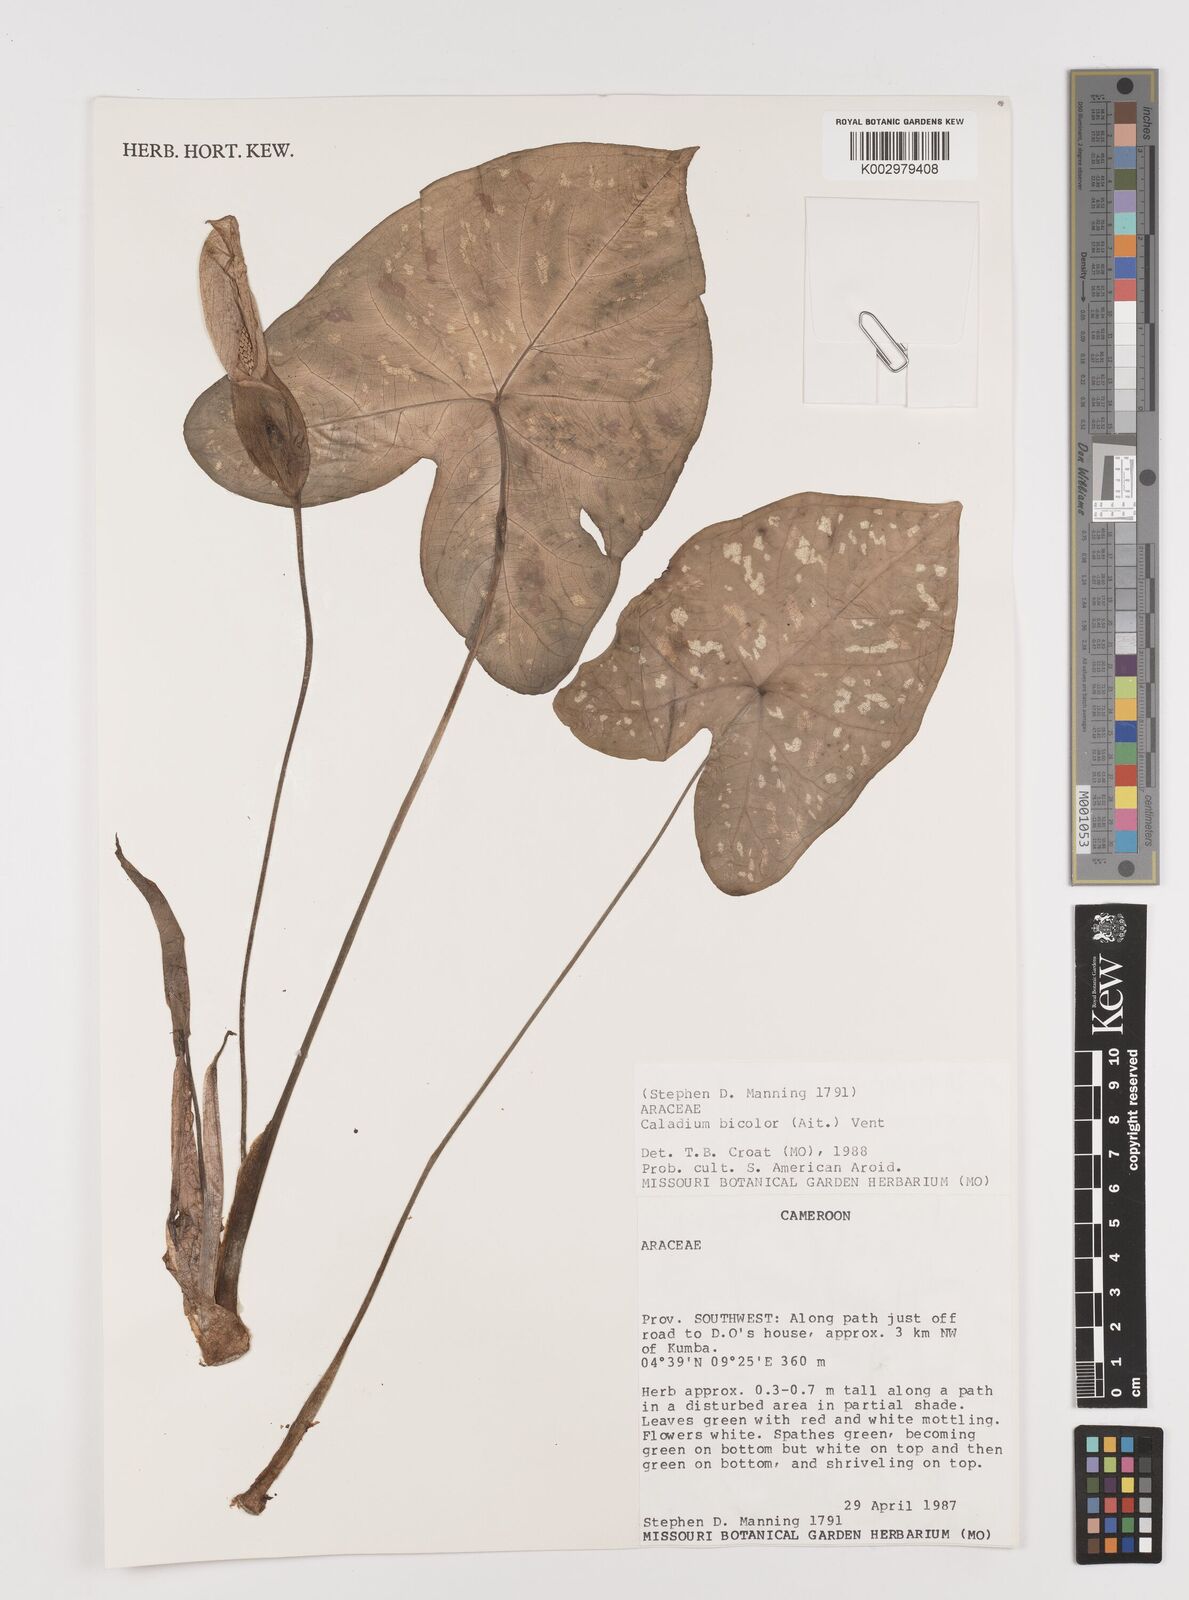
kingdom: Plantae
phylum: Tracheophyta
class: Liliopsida
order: Alismatales
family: Araceae
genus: Caladium
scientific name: Caladium bicolor
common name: Artist's pallet
